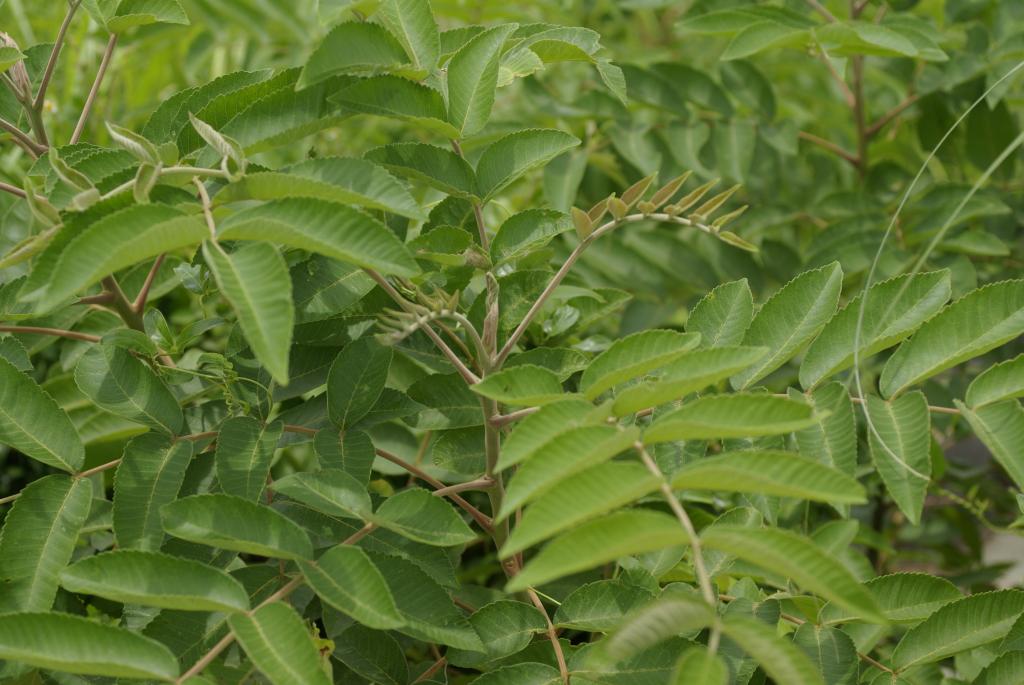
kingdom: Plantae
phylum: Tracheophyta
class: Magnoliopsida
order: Sapindales
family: Anacardiaceae
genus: Rhus
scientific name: Rhus chinensis
